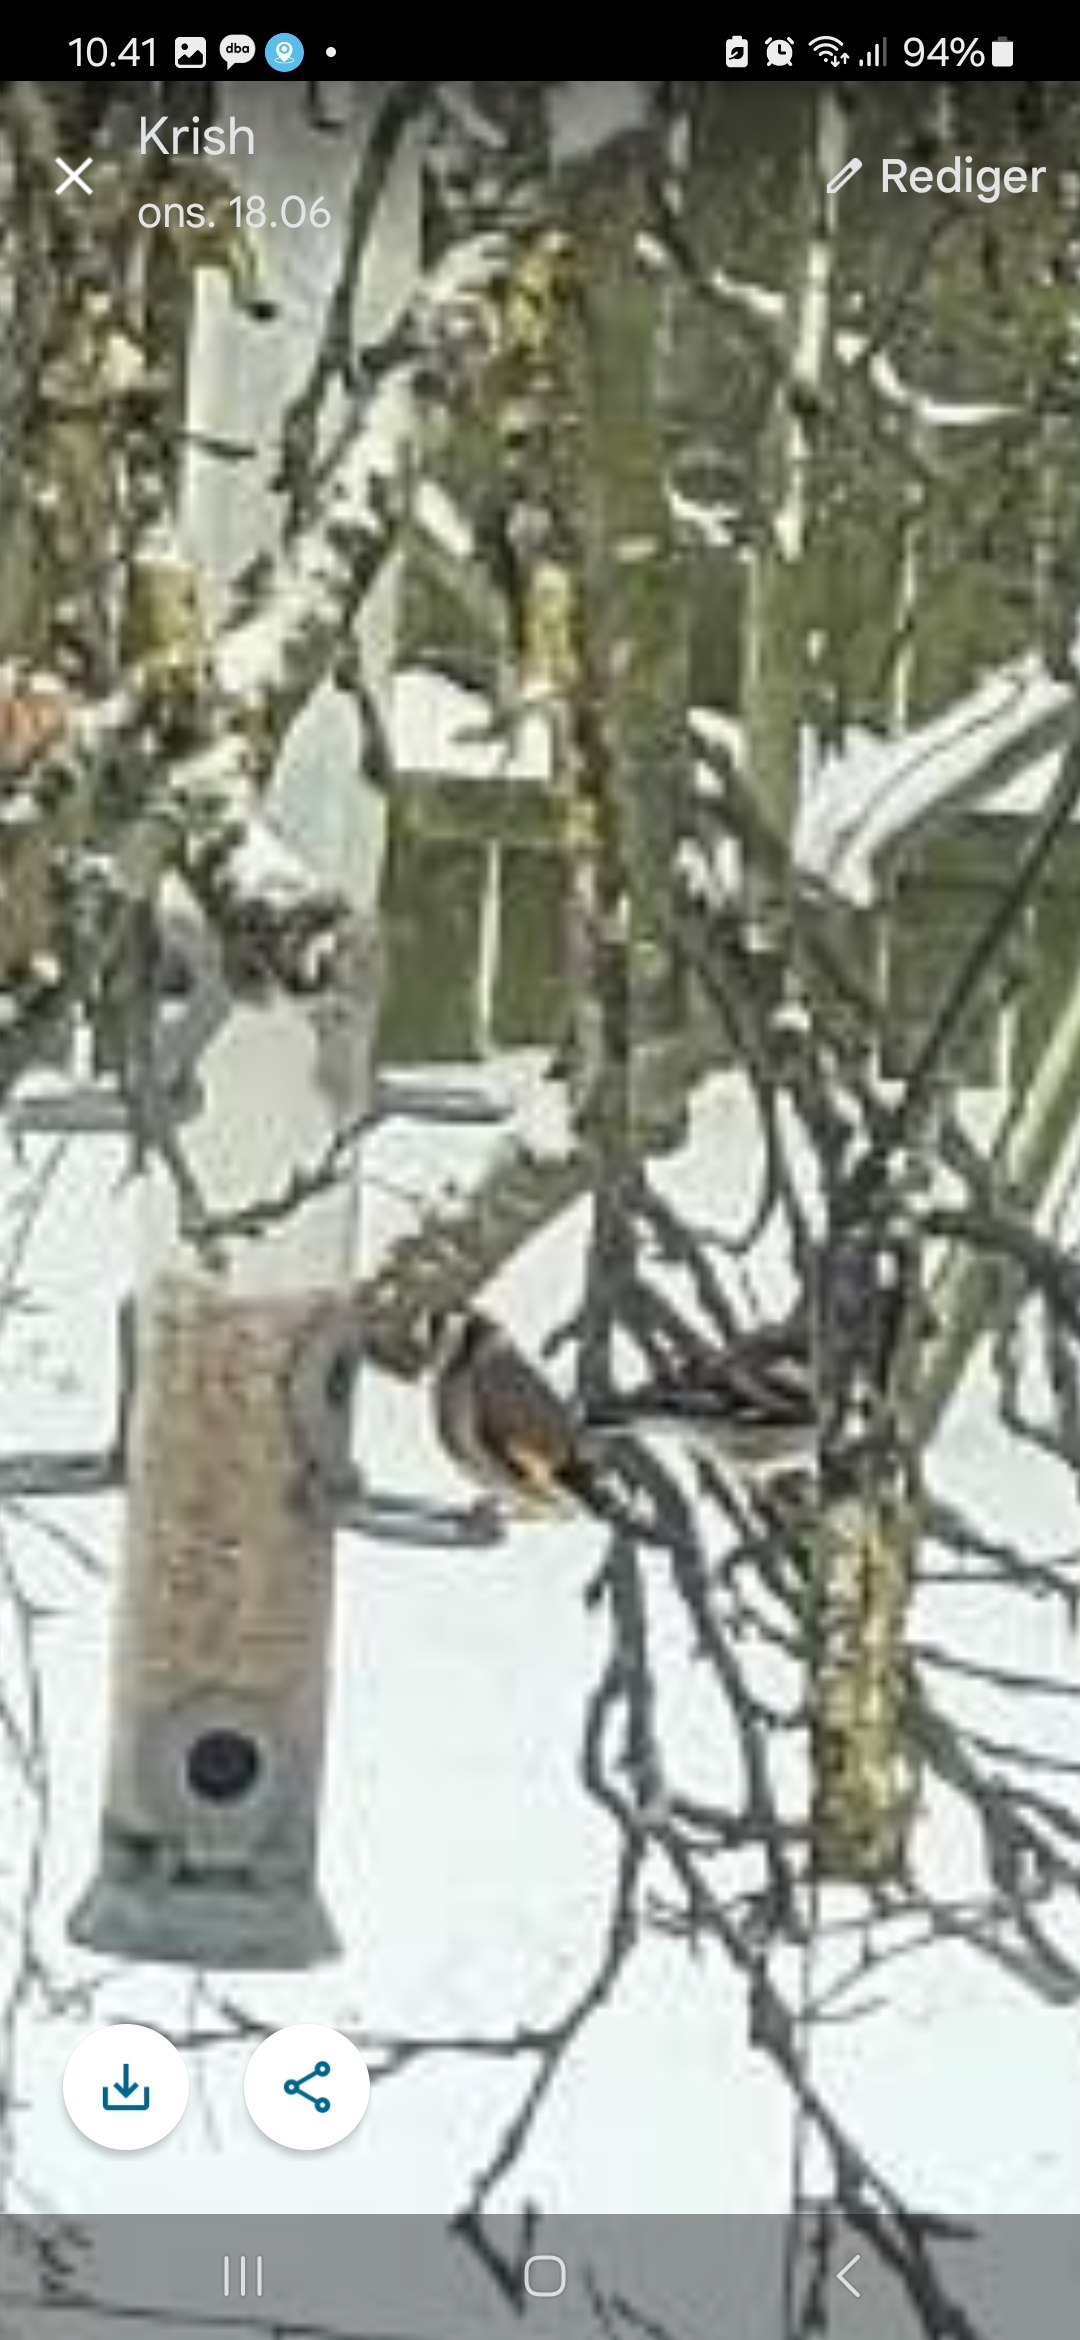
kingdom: Animalia
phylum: Chordata
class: Aves
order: Passeriformes
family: Fringillidae
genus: Carduelis
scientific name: Carduelis carduelis
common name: Stillits
